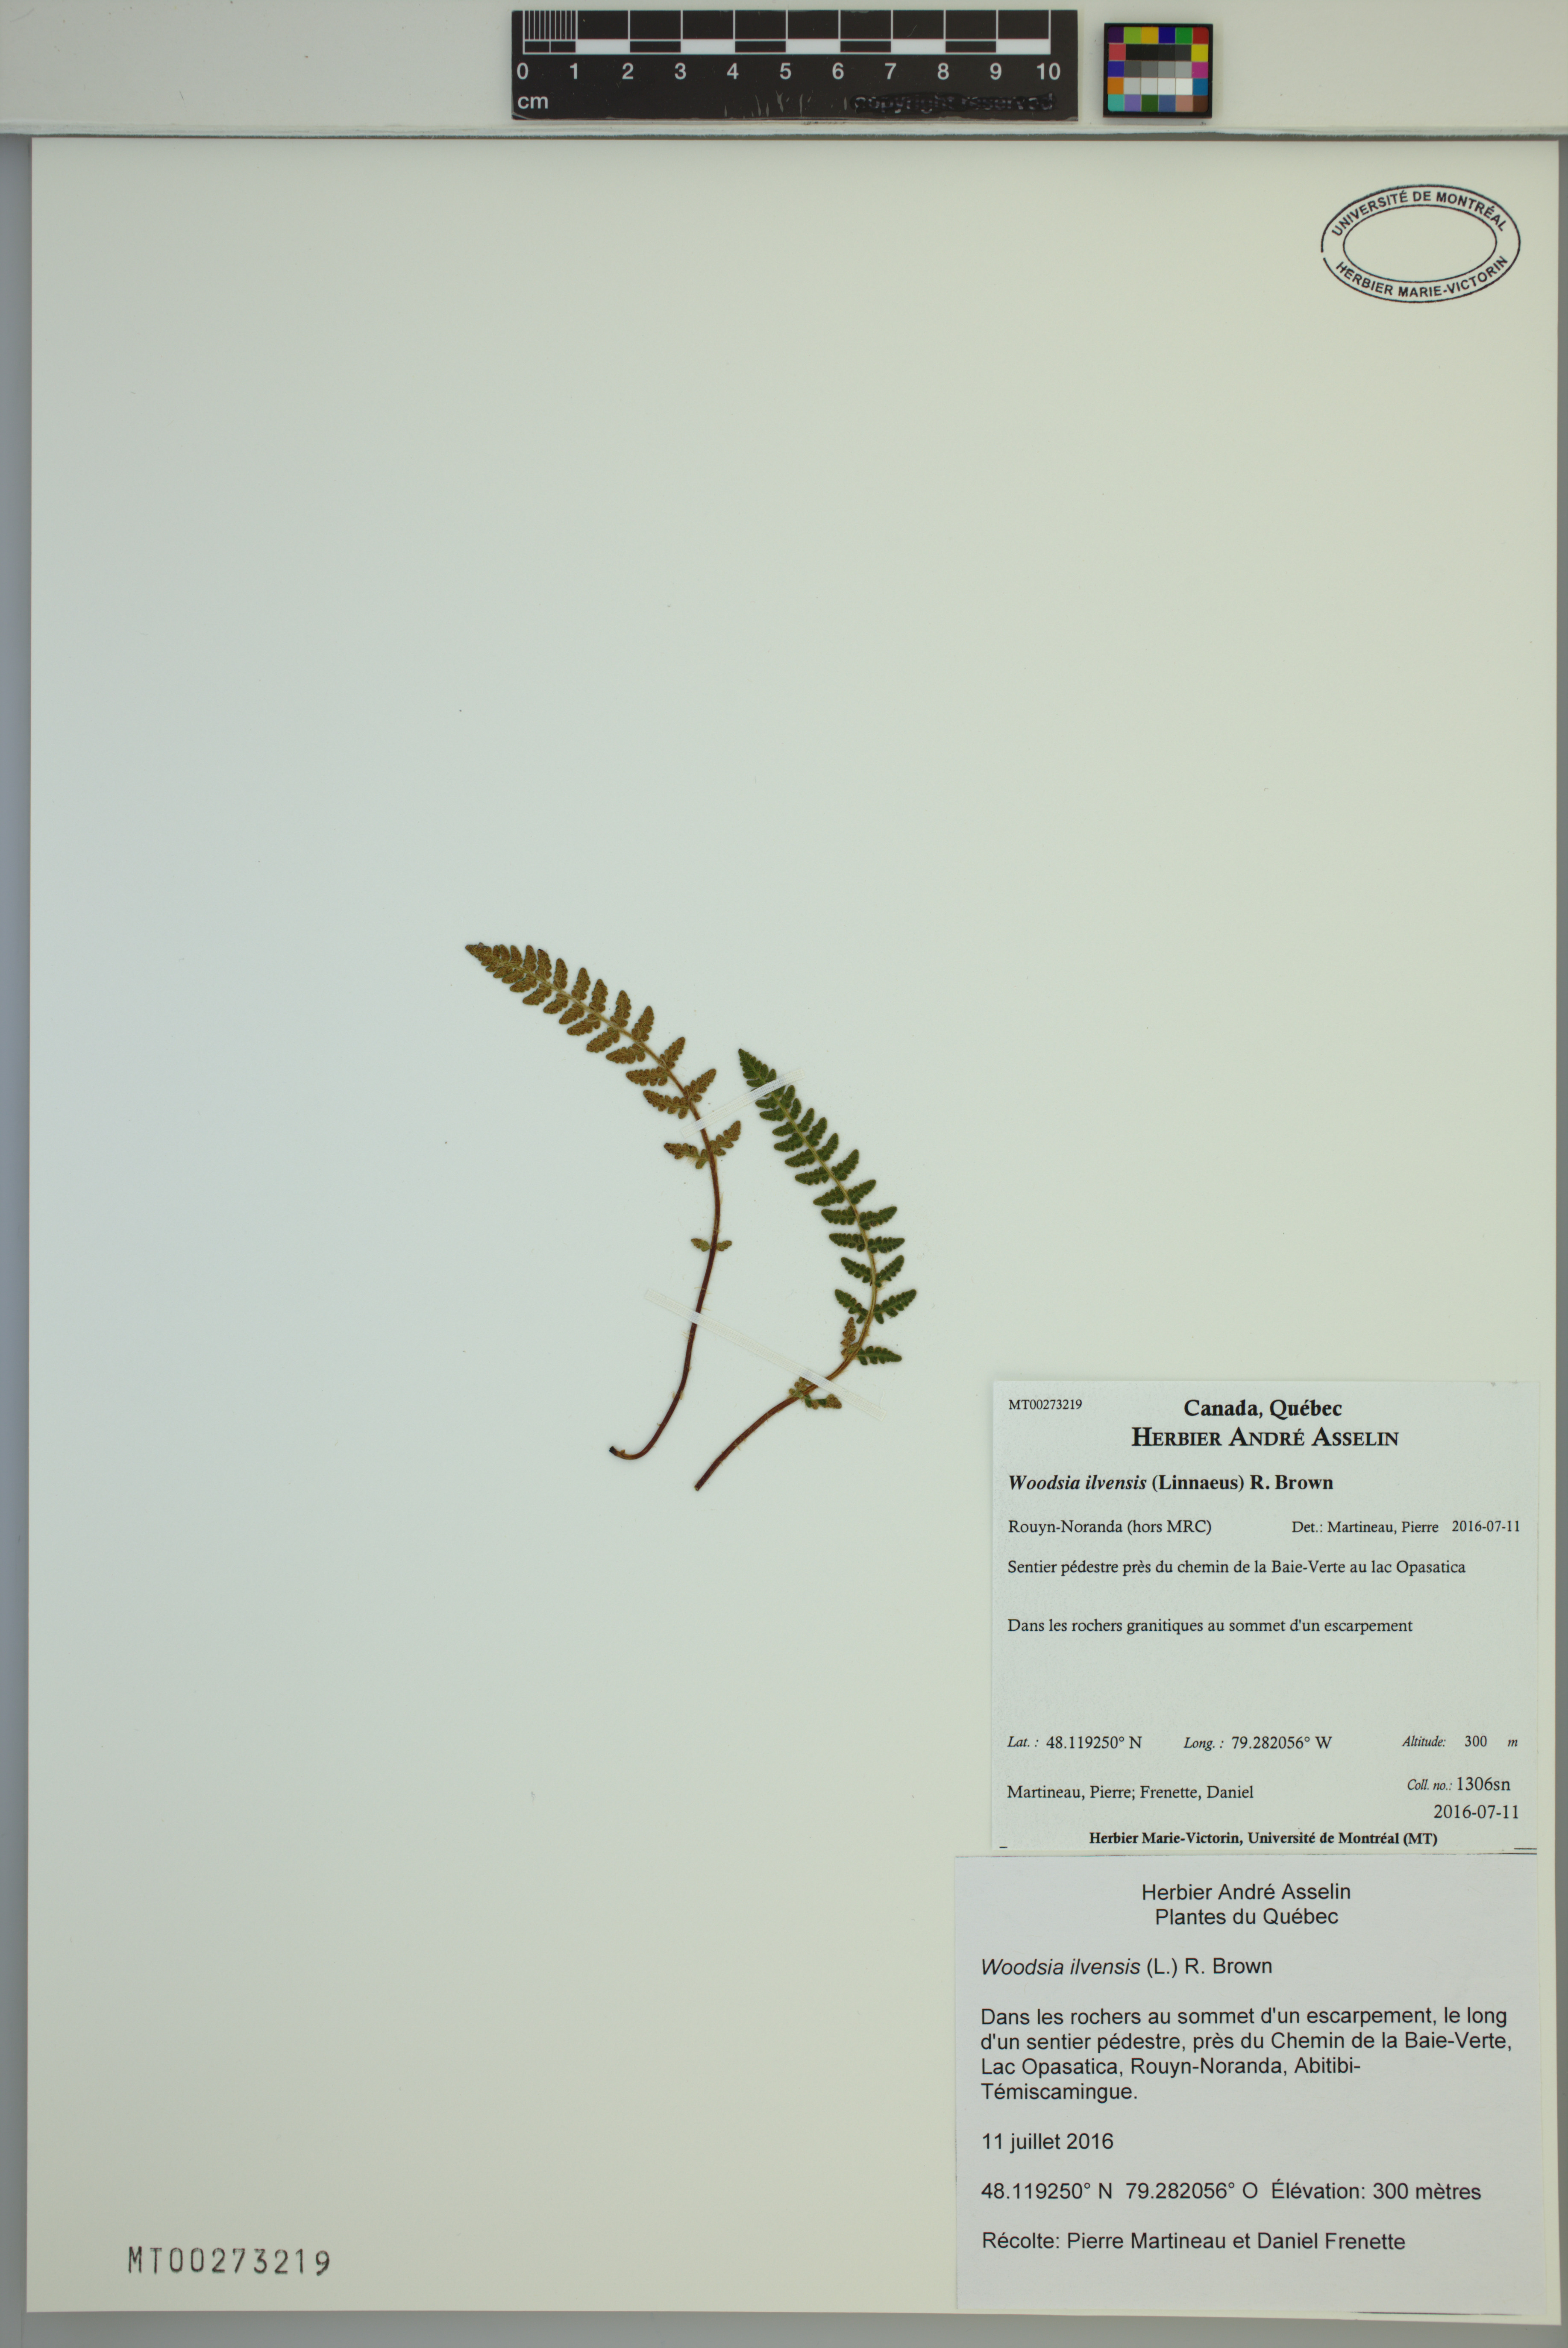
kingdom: Plantae
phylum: Tracheophyta
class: Polypodiopsida
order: Polypodiales
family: Woodsiaceae
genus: Woodsia
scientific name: Woodsia ilvensis
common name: Fragrant woodsia
